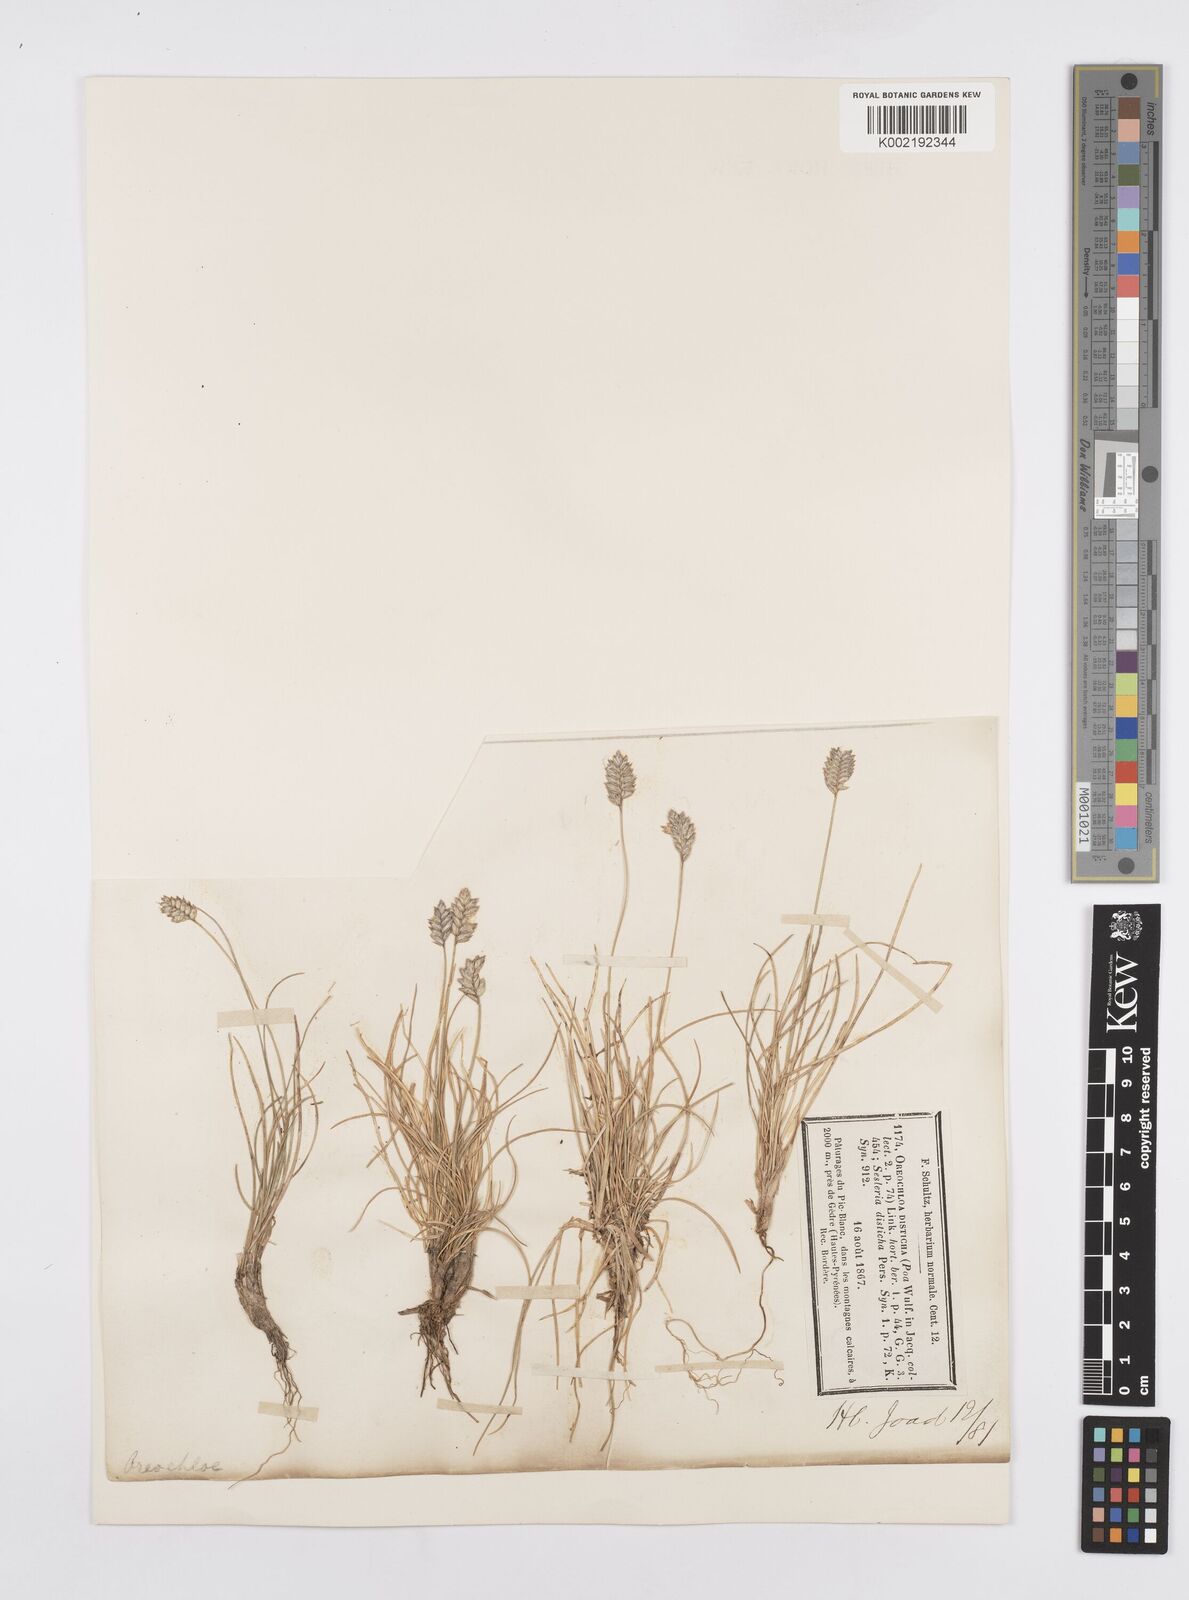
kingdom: Plantae
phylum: Tracheophyta
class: Liliopsida
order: Poales
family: Poaceae
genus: Oreochloa
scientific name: Oreochloa elegans
